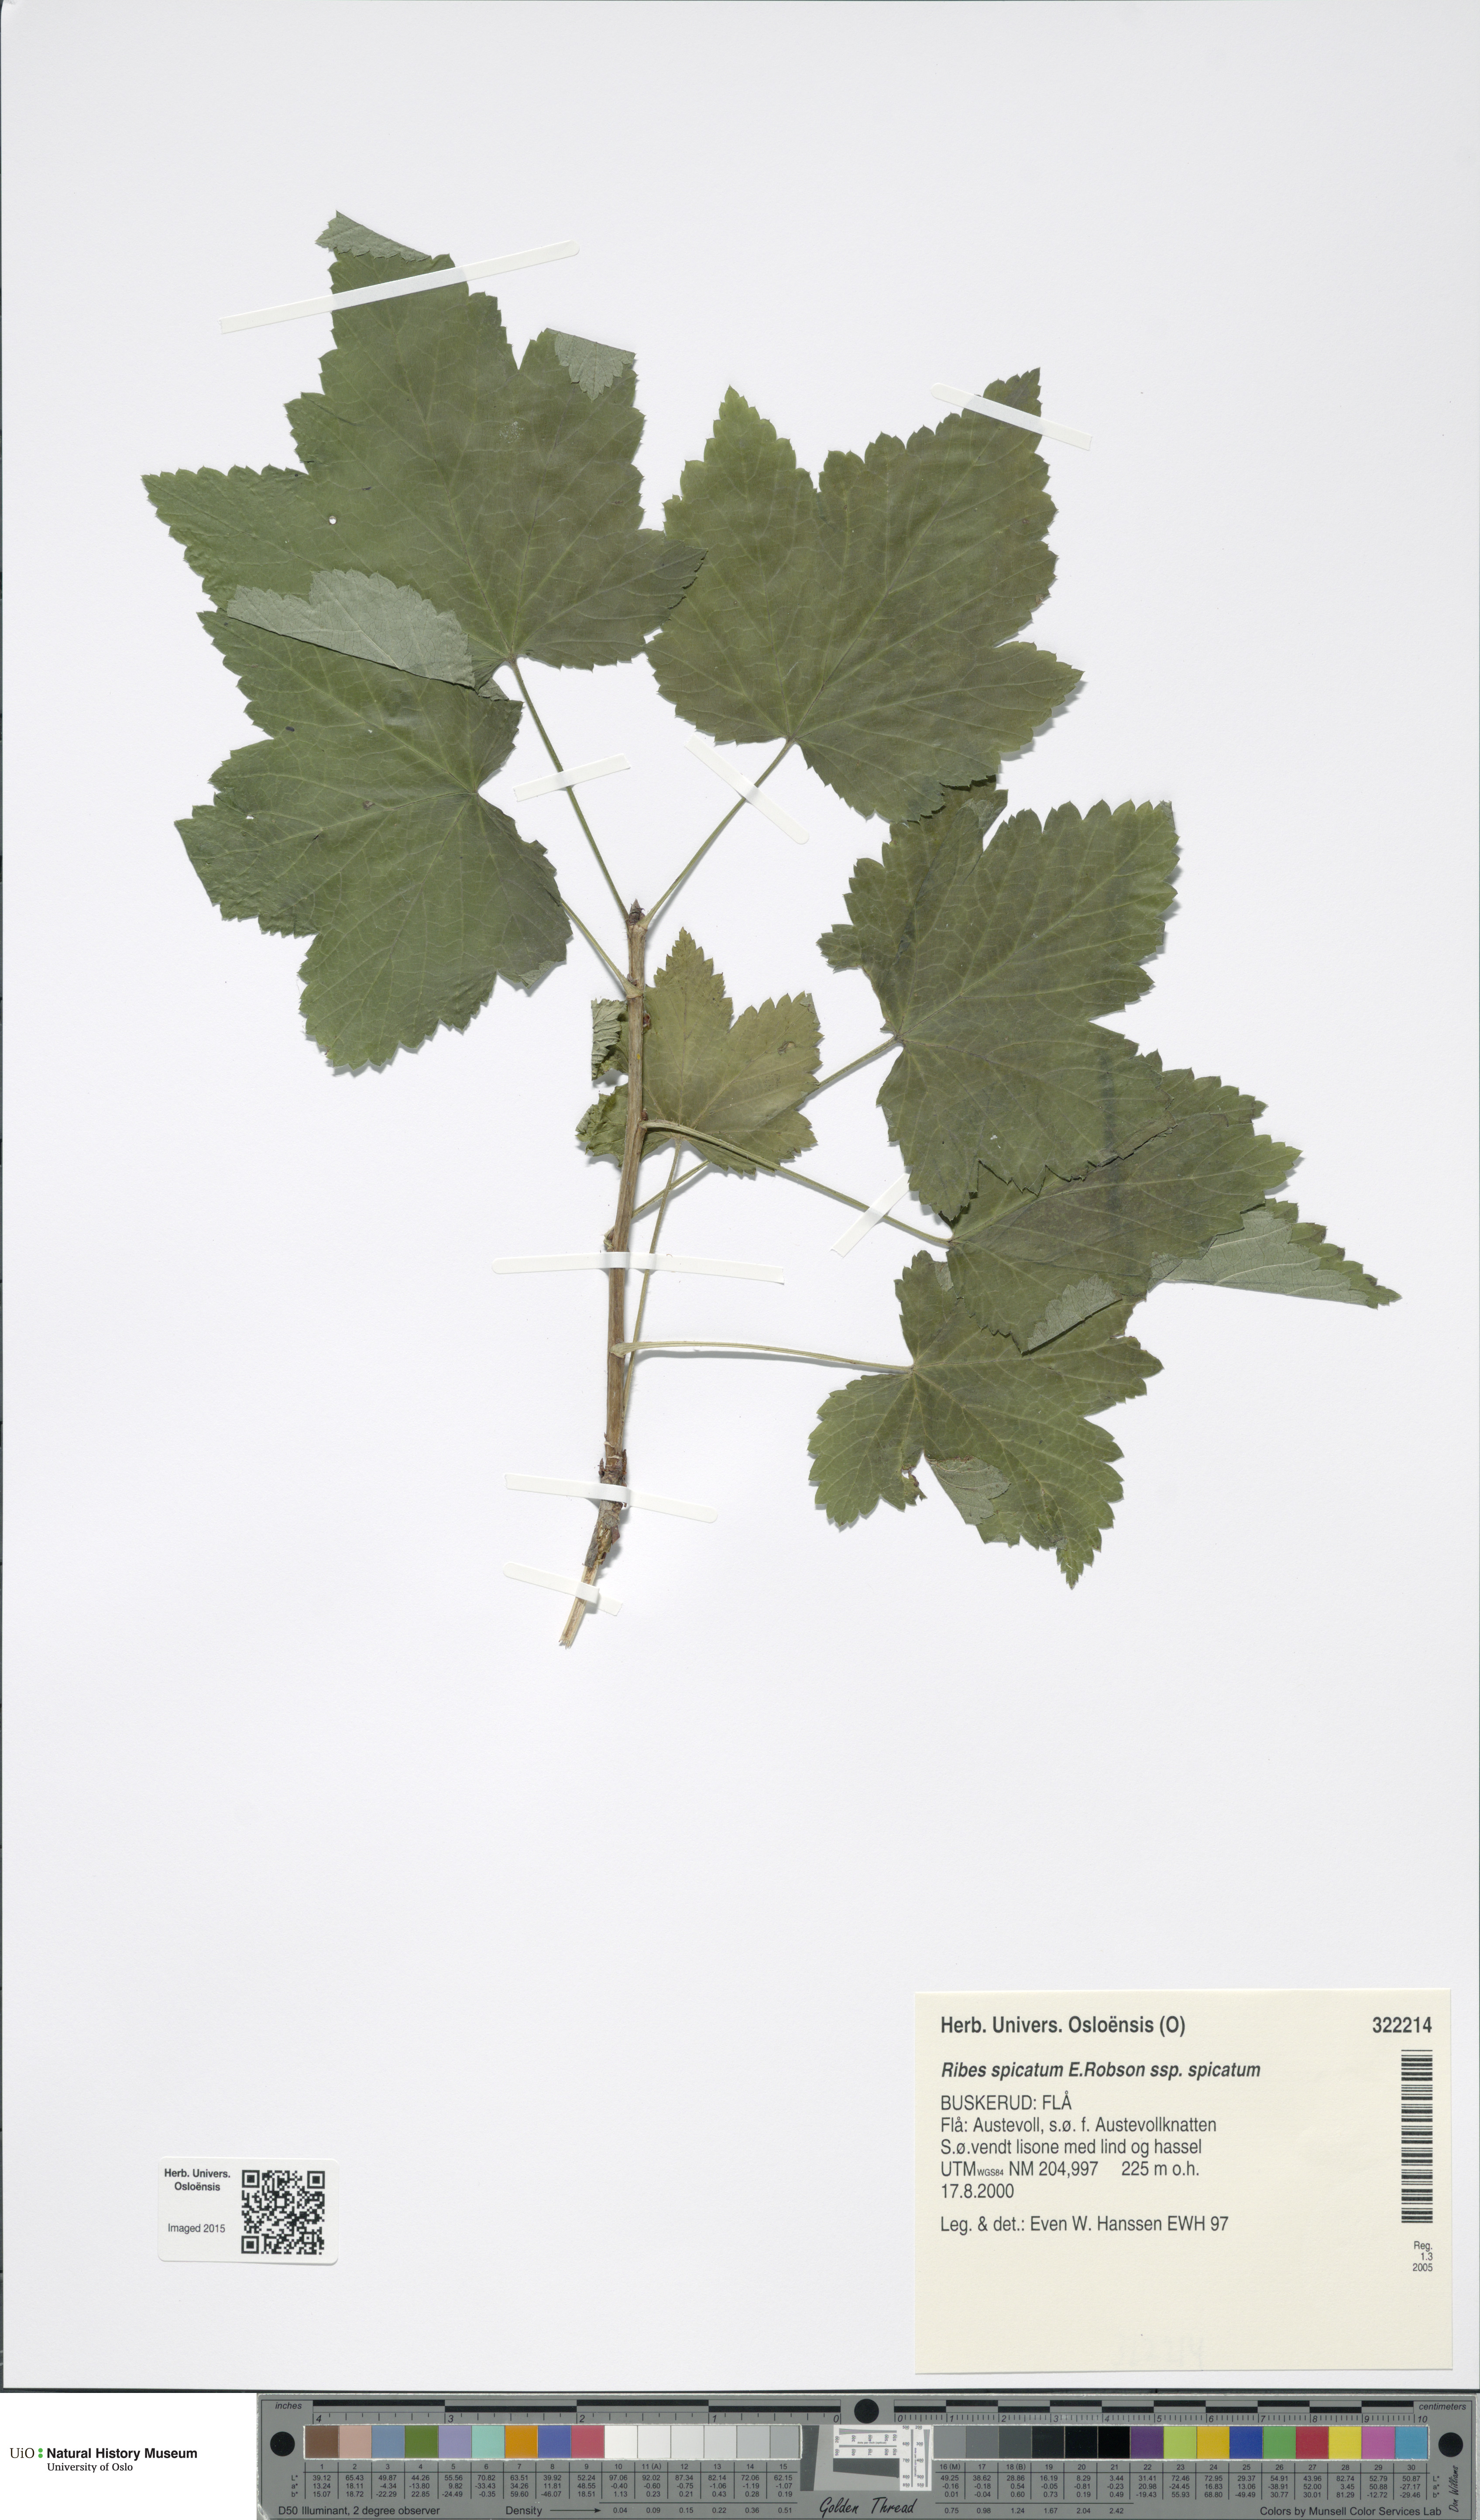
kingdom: Plantae
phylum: Tracheophyta
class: Magnoliopsida
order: Saxifragales
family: Grossulariaceae
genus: Ribes
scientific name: Ribes spicatum
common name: Downy currant
